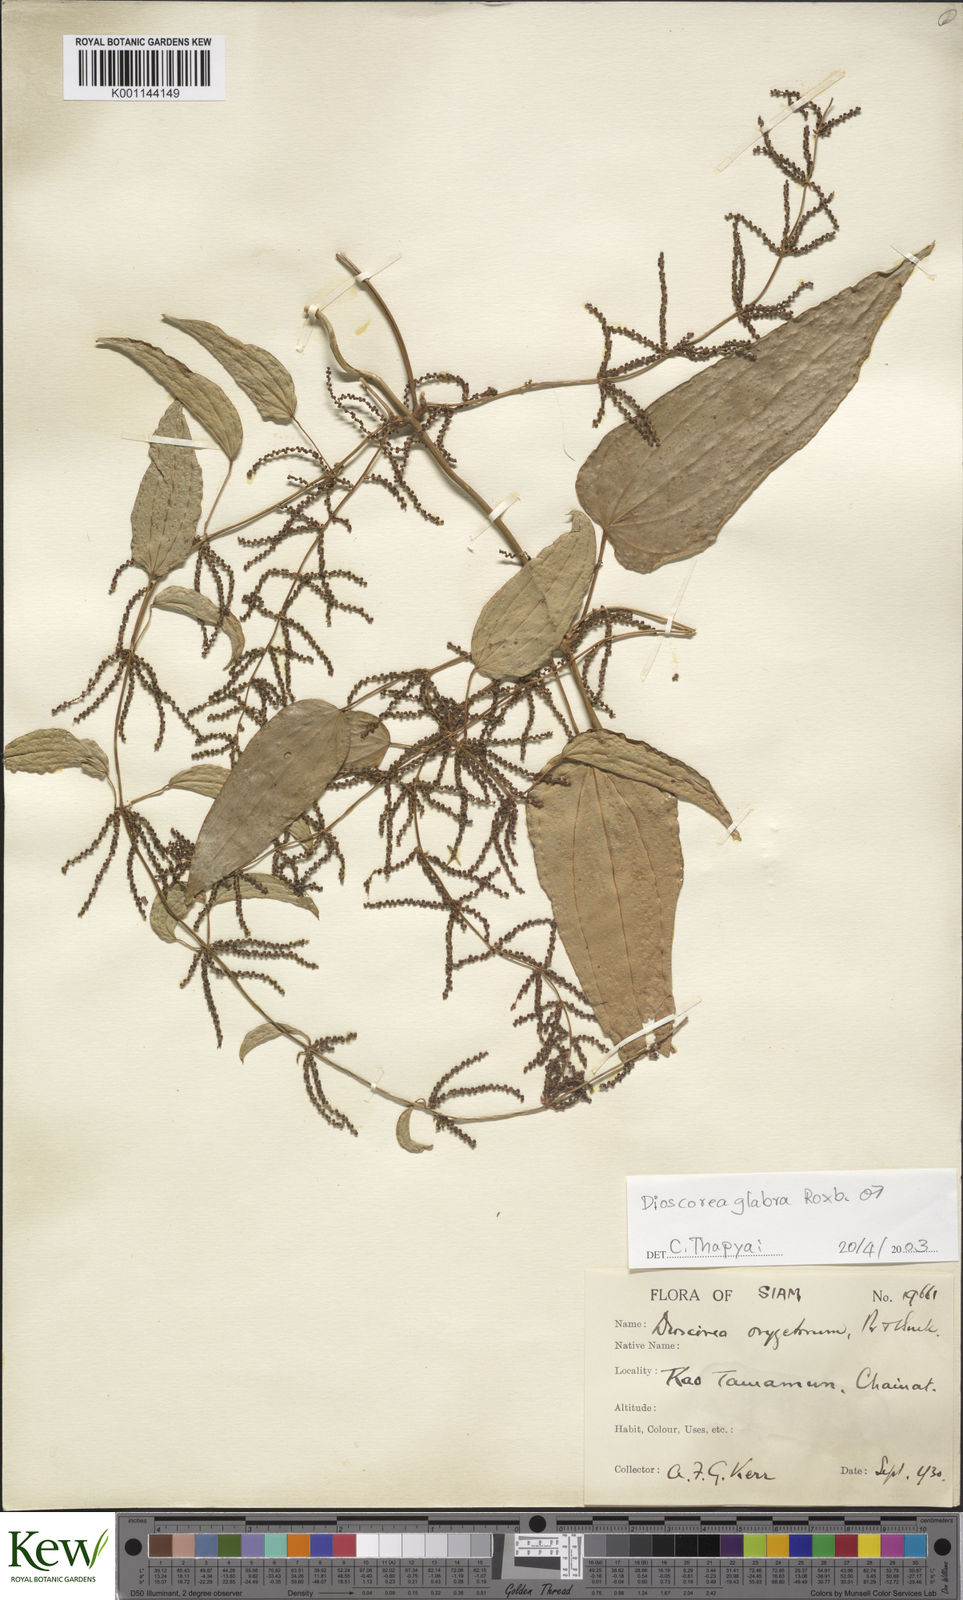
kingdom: Plantae
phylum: Tracheophyta
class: Liliopsida
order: Dioscoreales
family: Dioscoreaceae
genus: Dioscorea
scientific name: Dioscorea glabra
